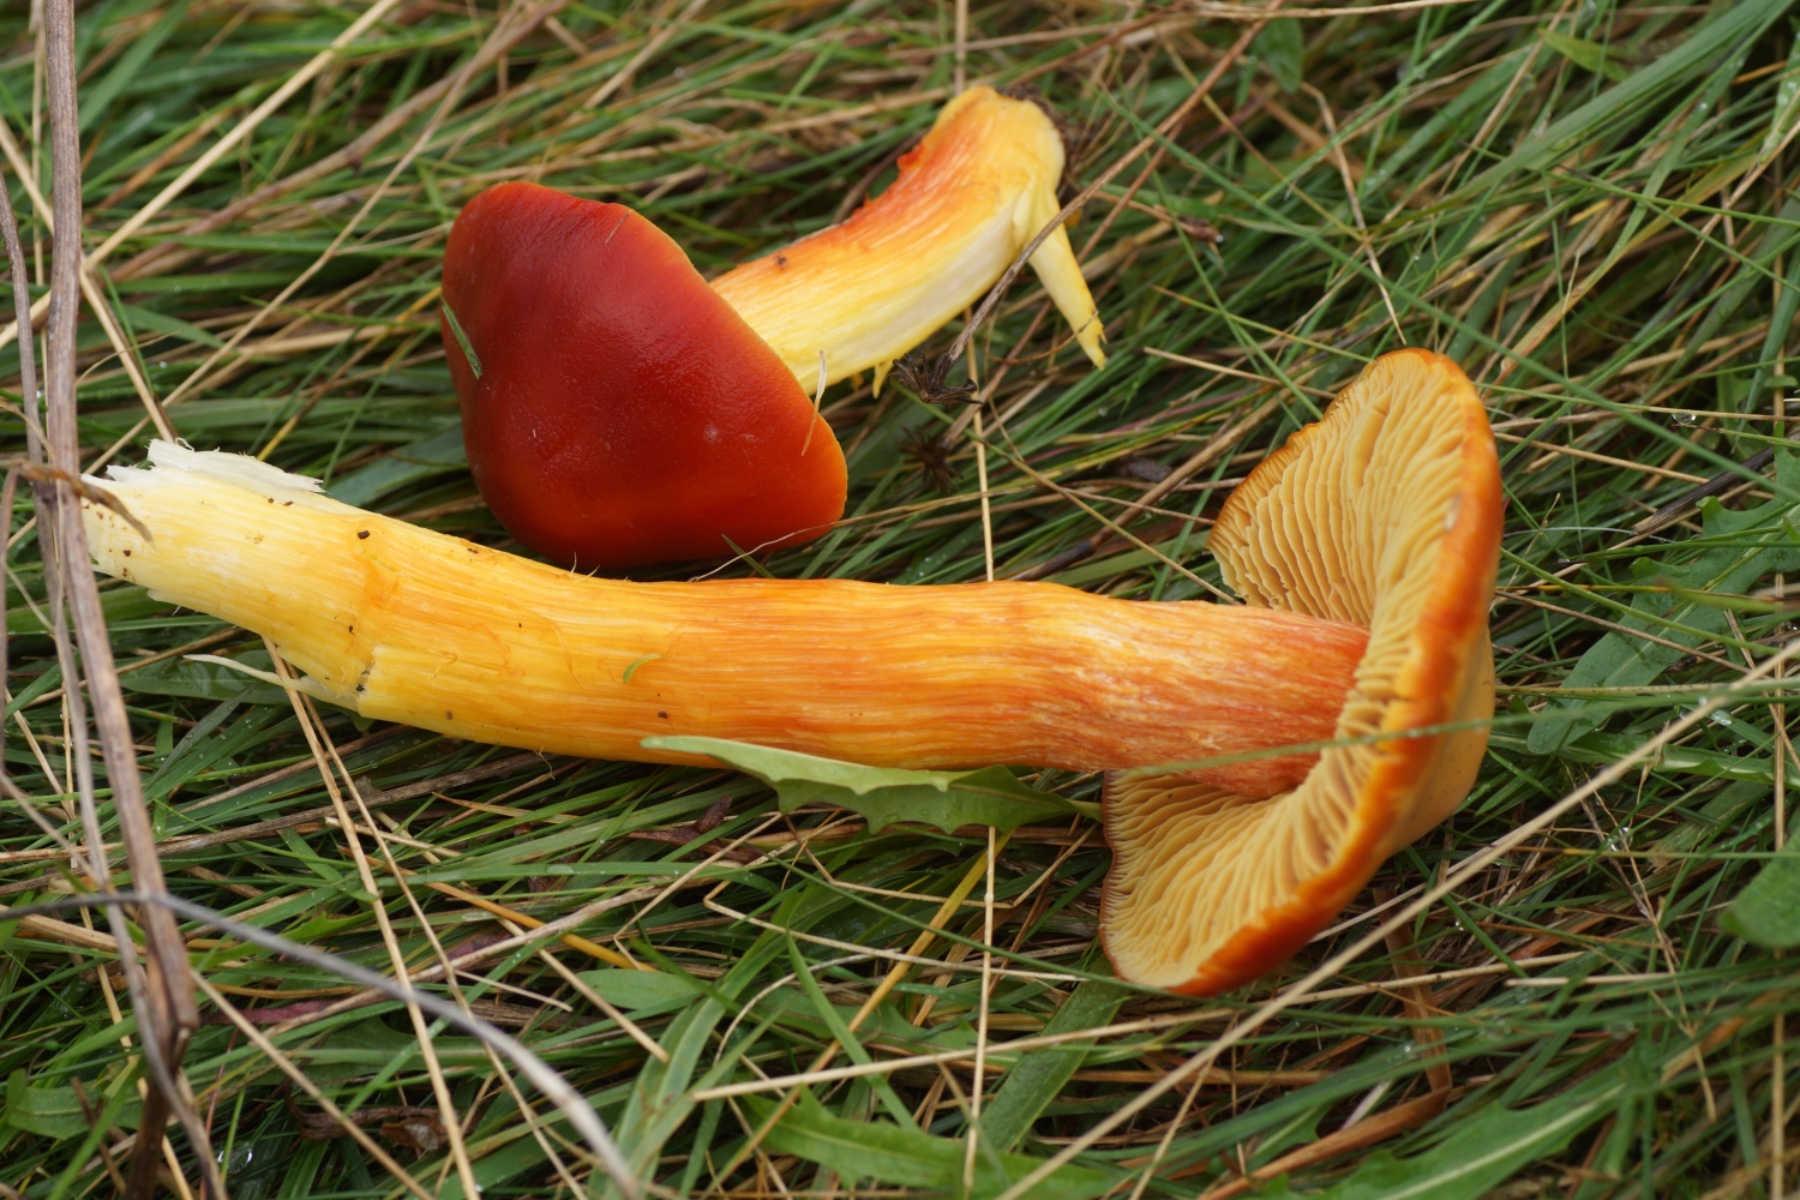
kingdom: Fungi
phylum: Basidiomycota
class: Agaricomycetes
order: Agaricales
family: Hygrophoraceae
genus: Hygrocybe
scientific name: Hygrocybe punicea
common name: skarlagen-vokshat
